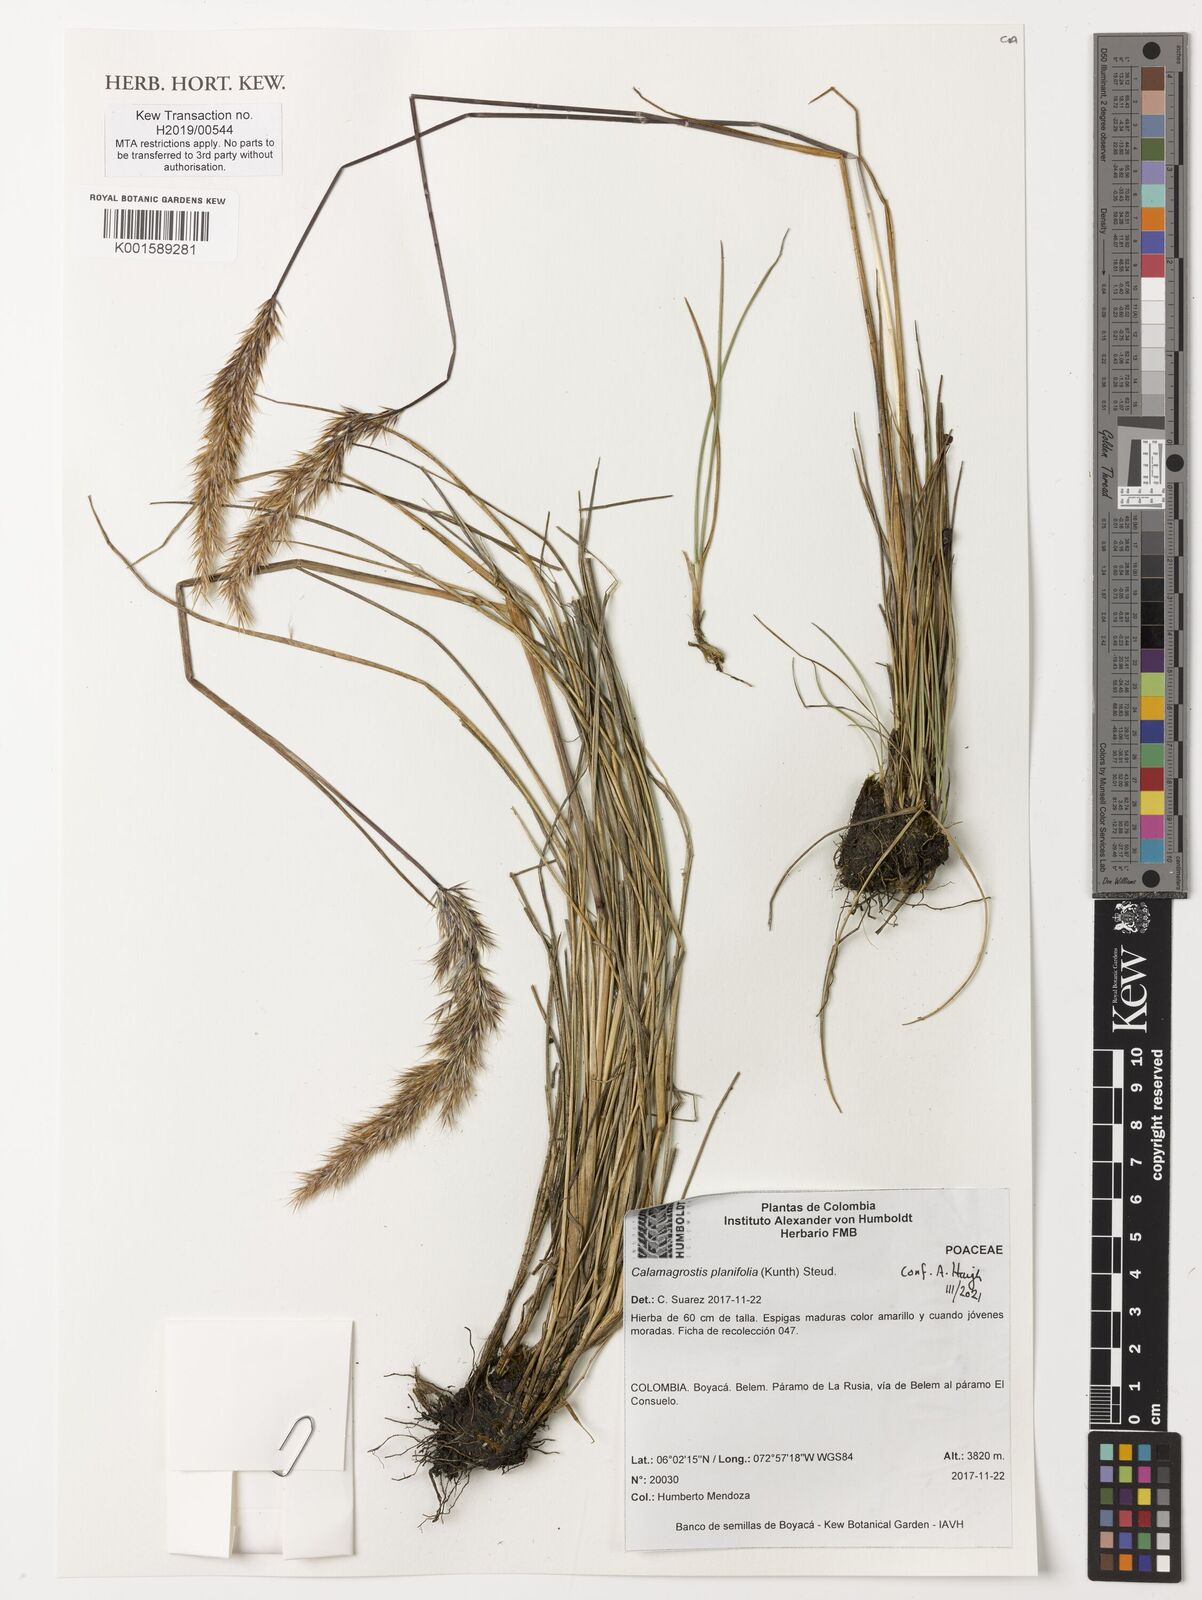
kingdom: Plantae
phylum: Tracheophyta
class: Liliopsida
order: Poales
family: Poaceae
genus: Peyritschia
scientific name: Peyritschia planifolia
